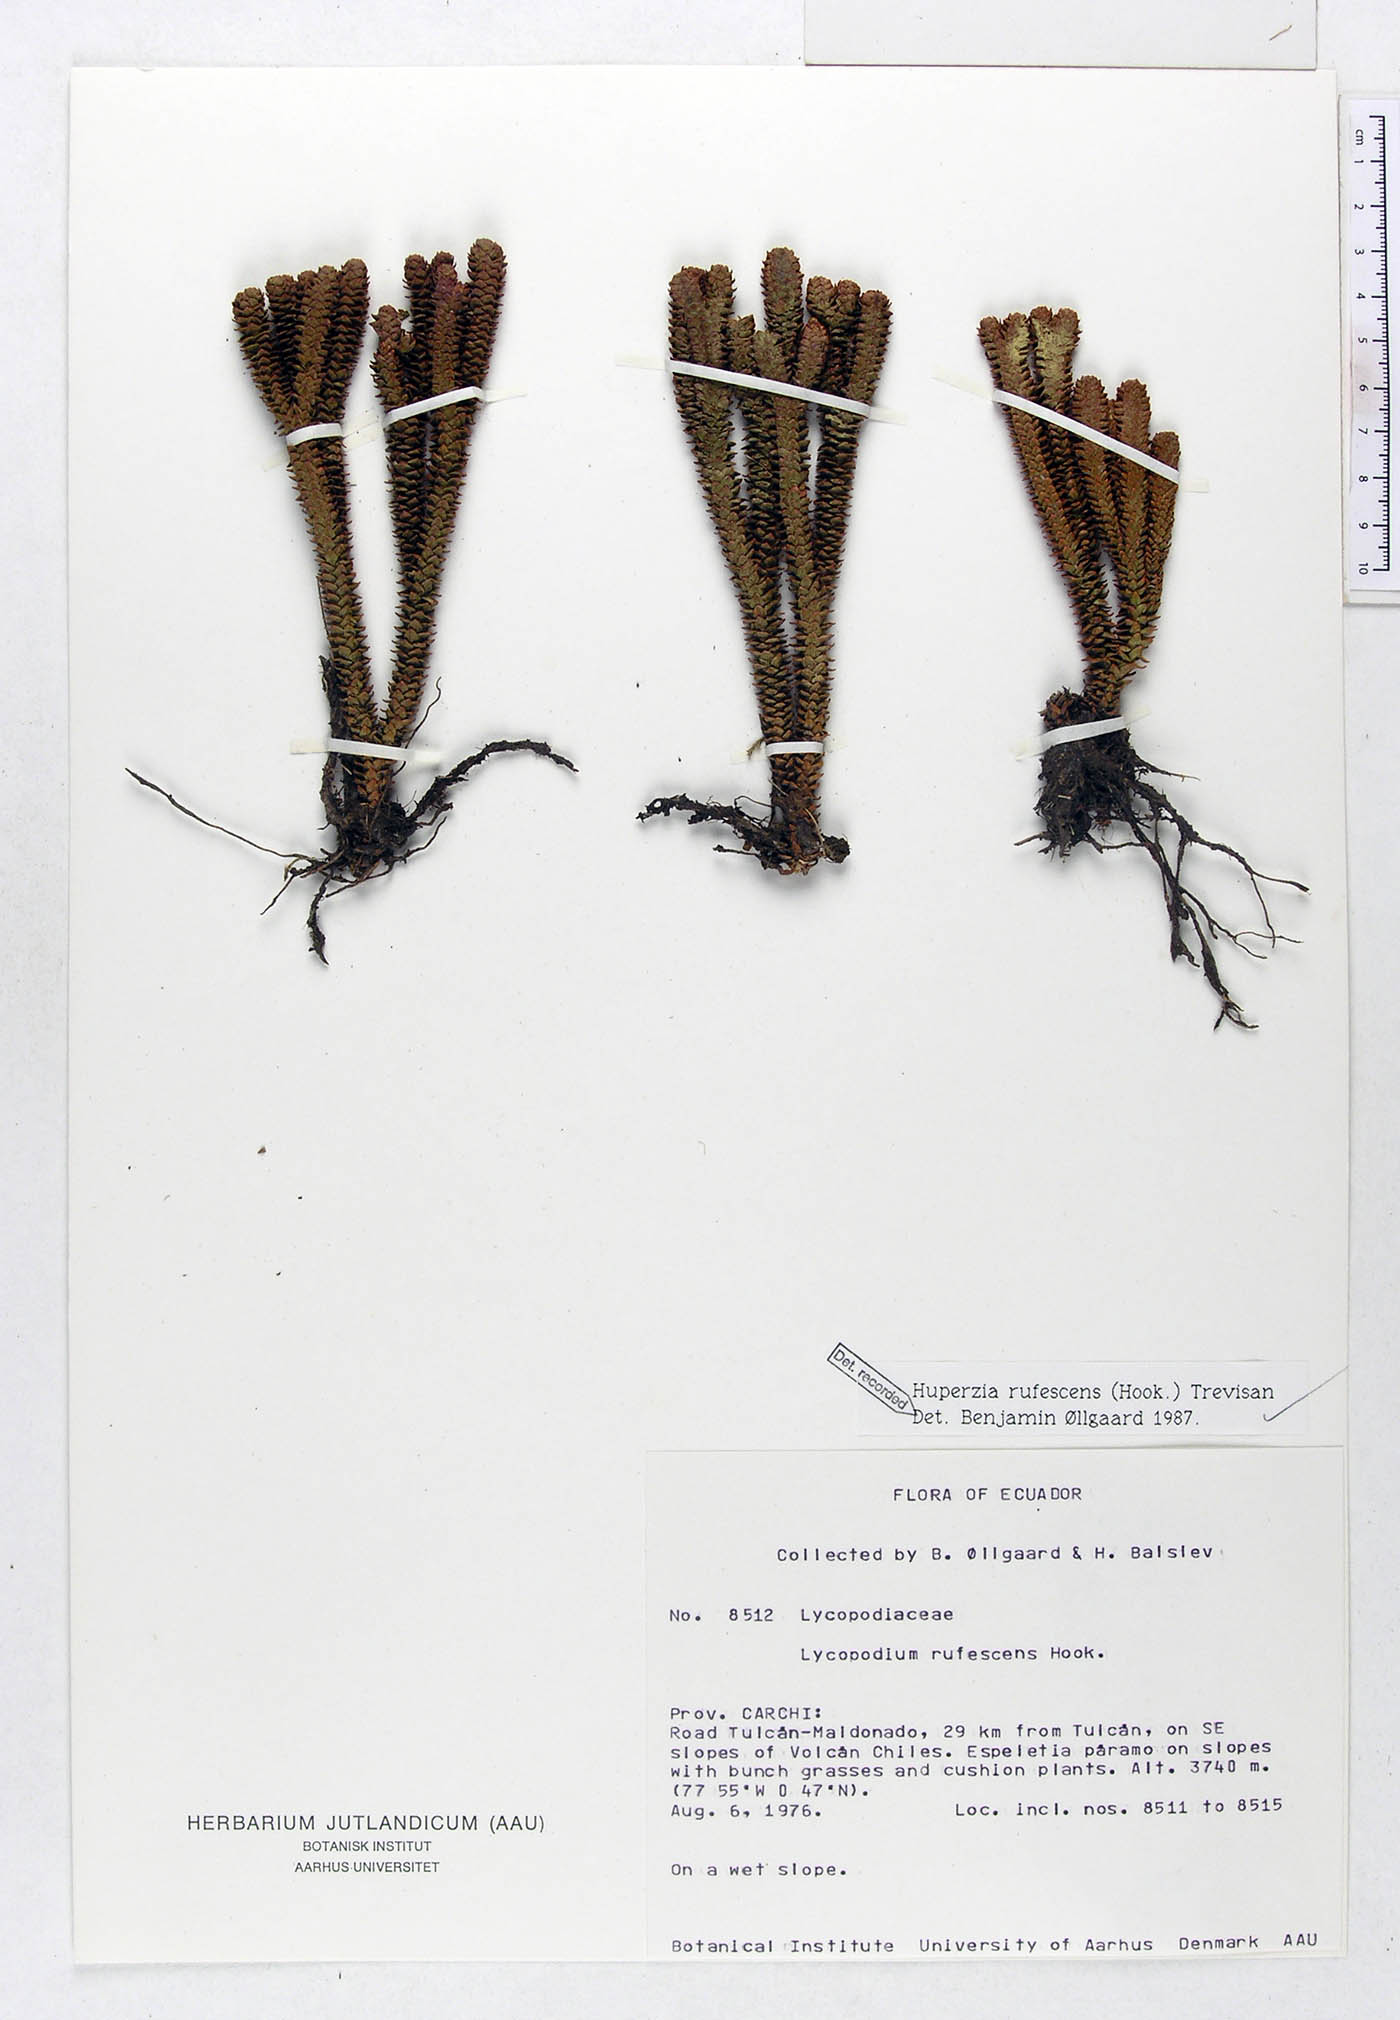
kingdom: Plantae
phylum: Tracheophyta
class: Lycopodiopsida
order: Lycopodiales
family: Lycopodiaceae
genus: Phlegmariurus
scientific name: Phlegmariurus rufescens
